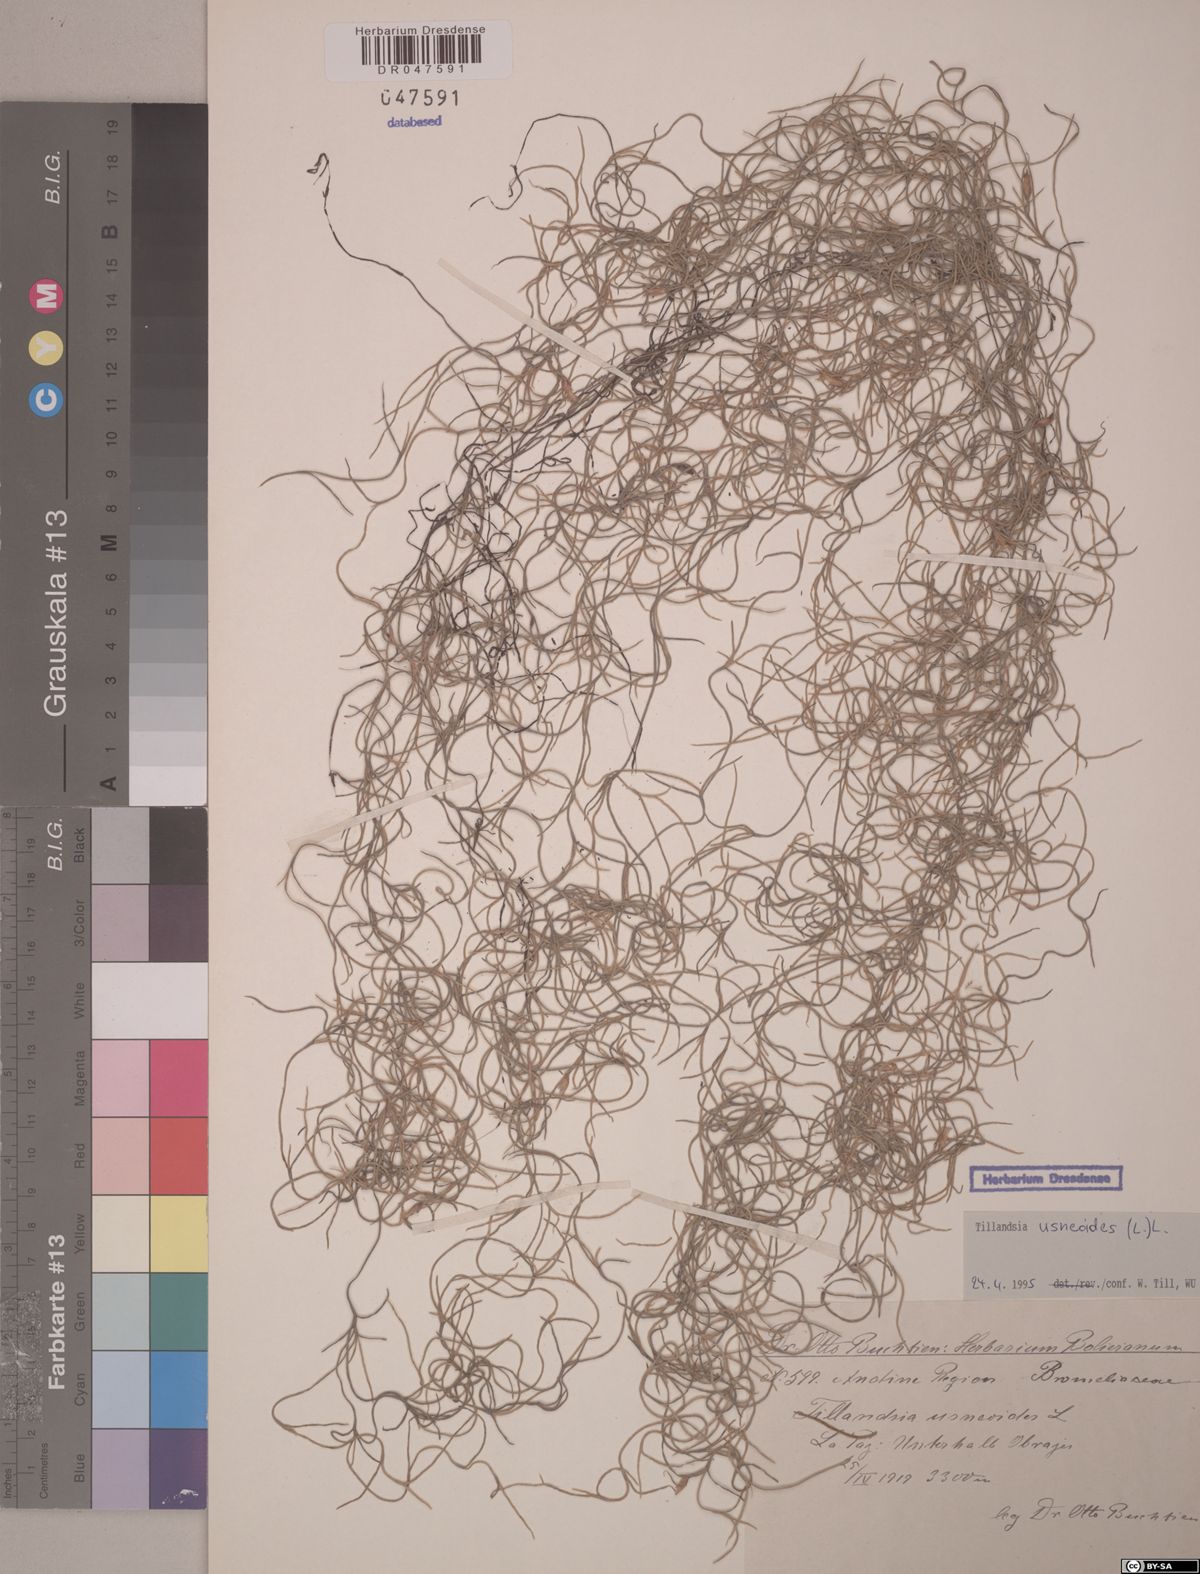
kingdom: Plantae
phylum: Tracheophyta
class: Liliopsida
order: Poales
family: Bromeliaceae
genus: Tillandsia
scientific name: Tillandsia usneoides
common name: Spanish moss
